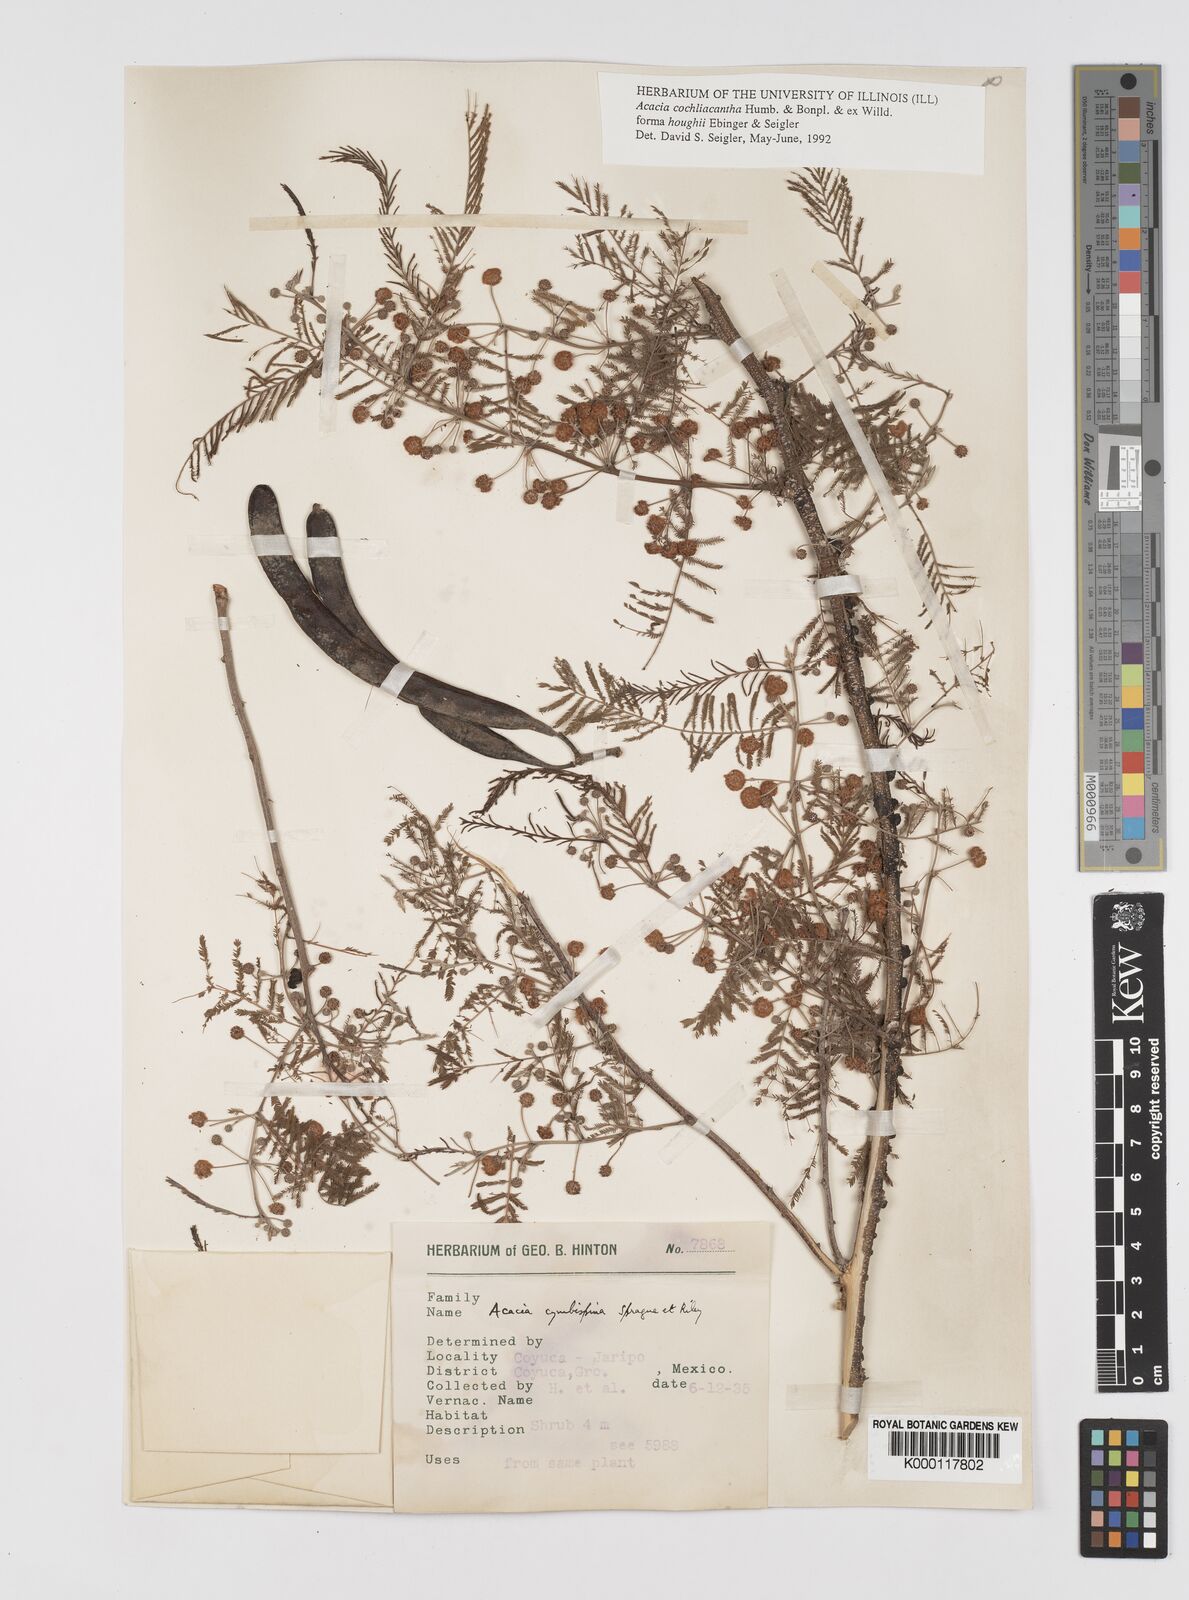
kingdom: Plantae
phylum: Tracheophyta
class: Magnoliopsida
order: Fabales
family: Fabaceae
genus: Vachellia
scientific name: Vachellia campeachiana
